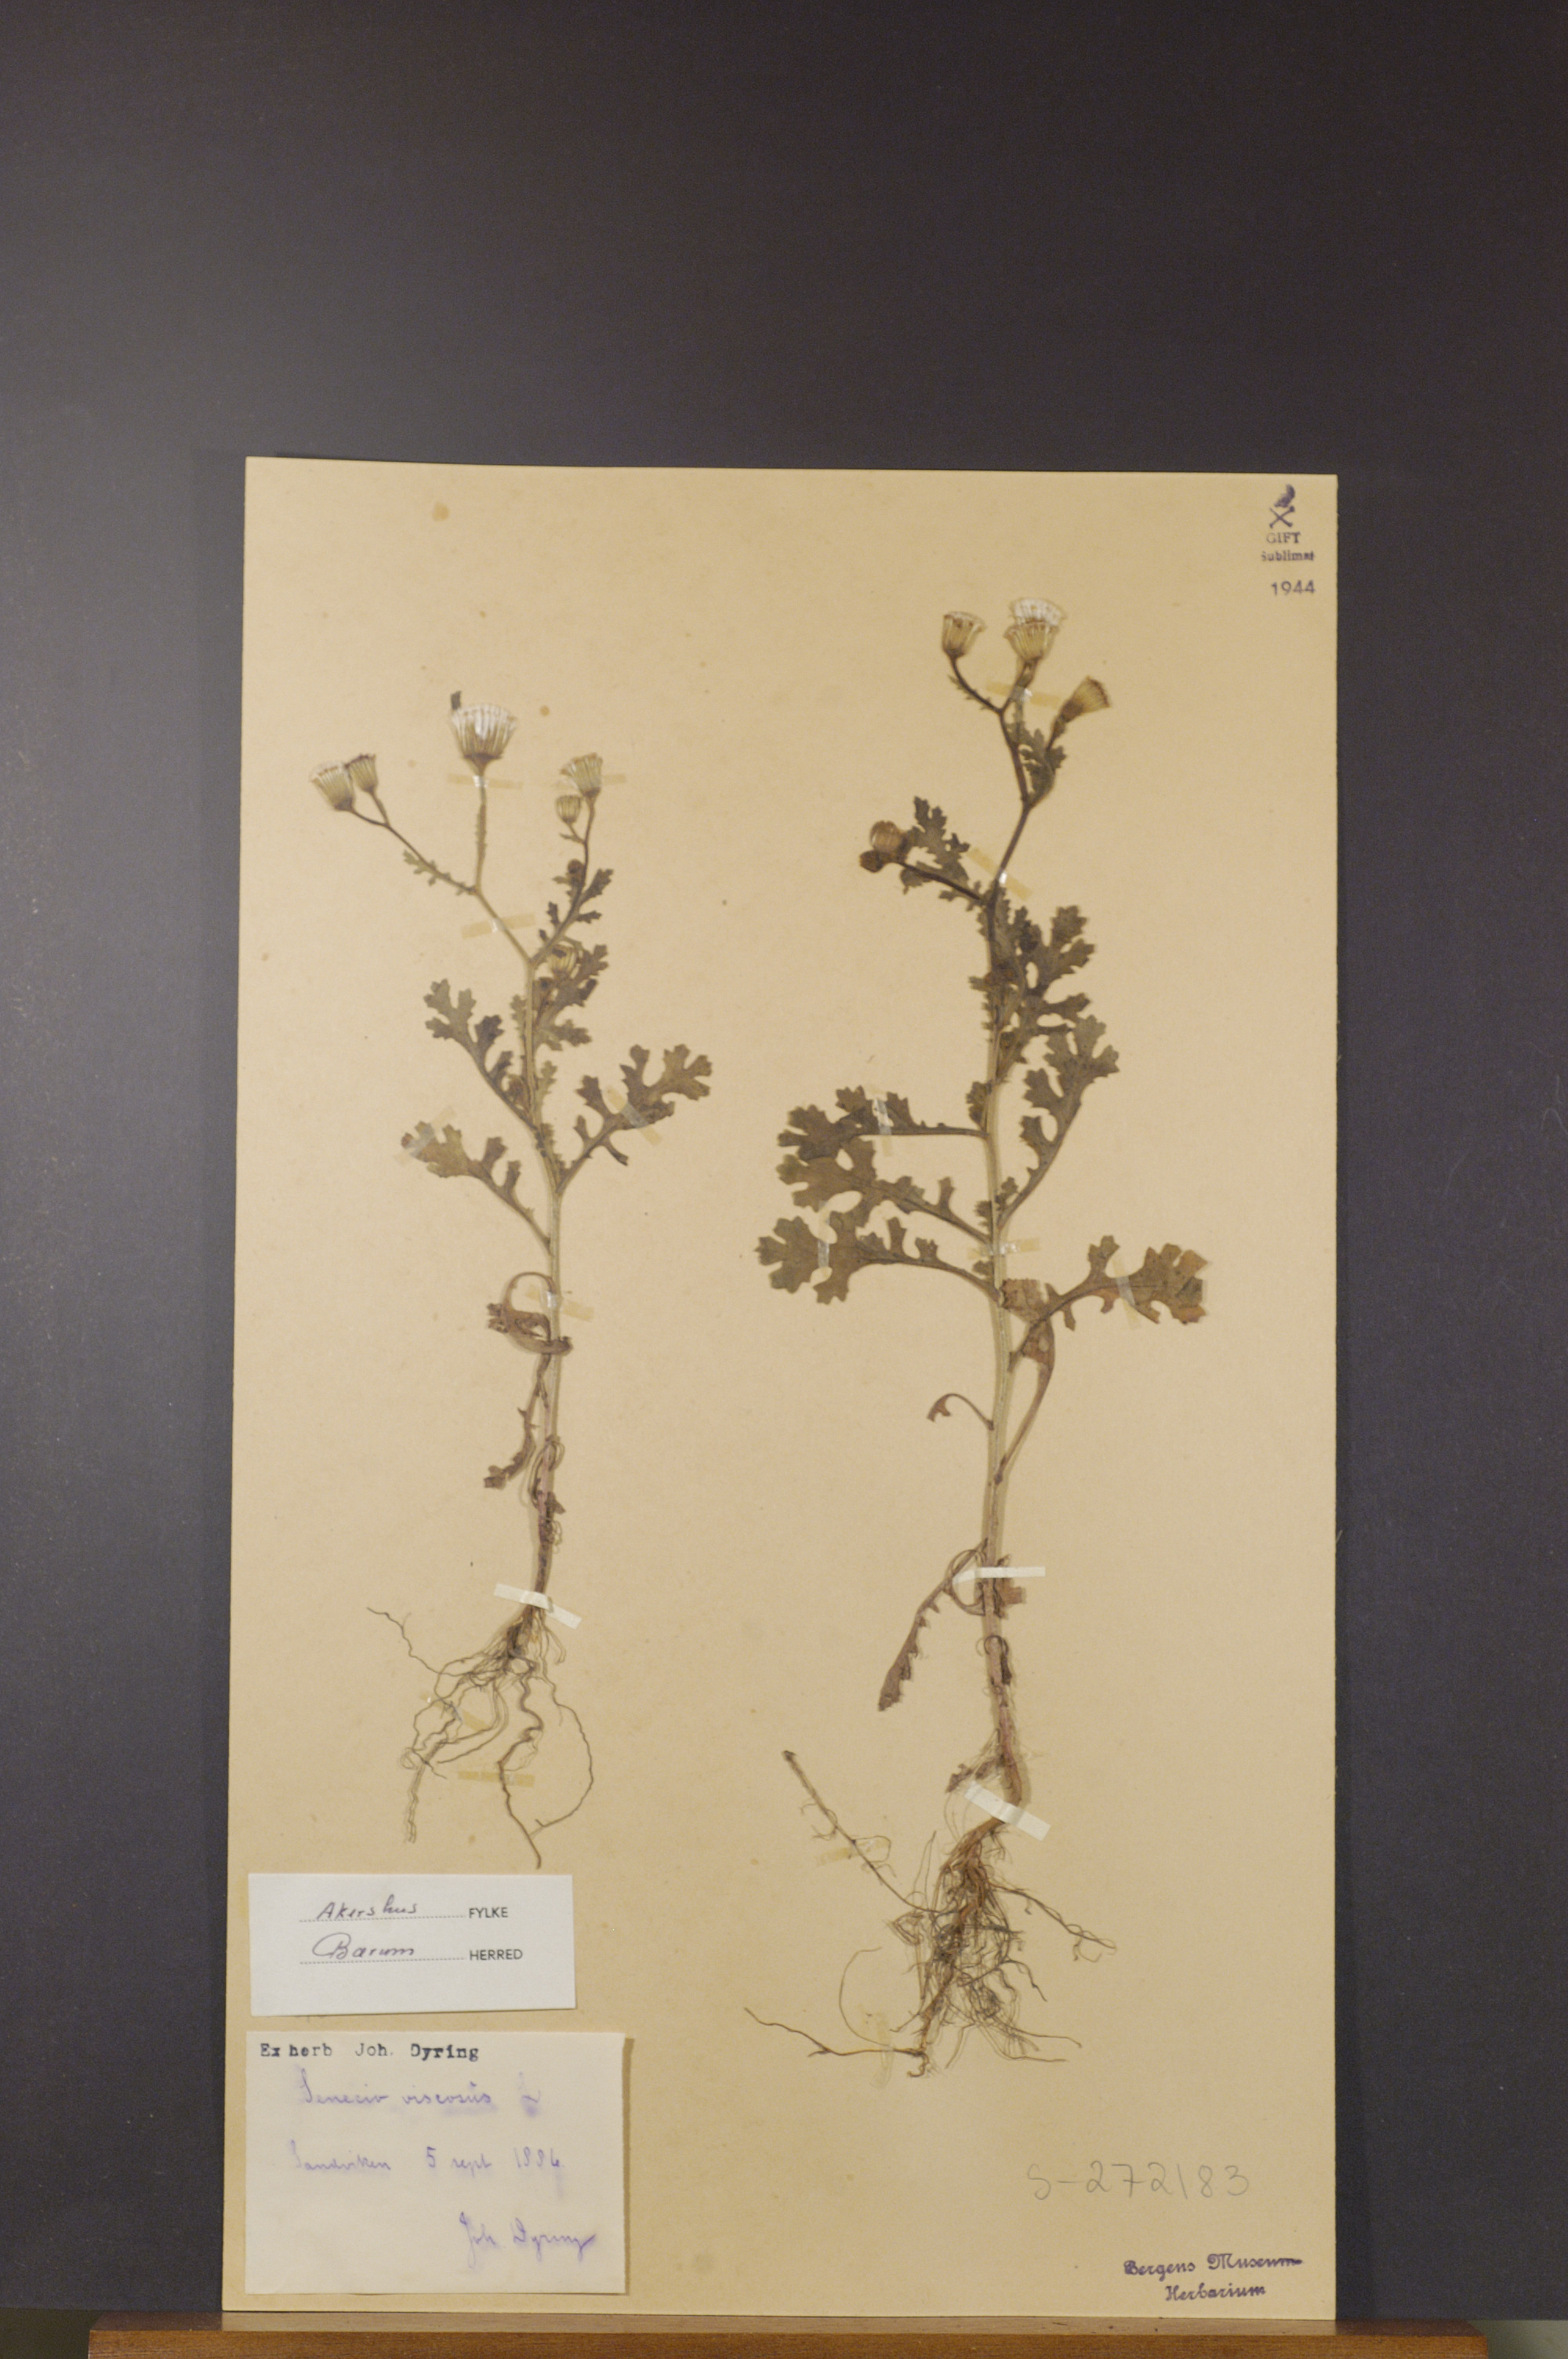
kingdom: Plantae
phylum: Tracheophyta
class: Magnoliopsida
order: Asterales
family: Asteraceae
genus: Senecio
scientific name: Senecio viscosus
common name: Sticky groundsel
